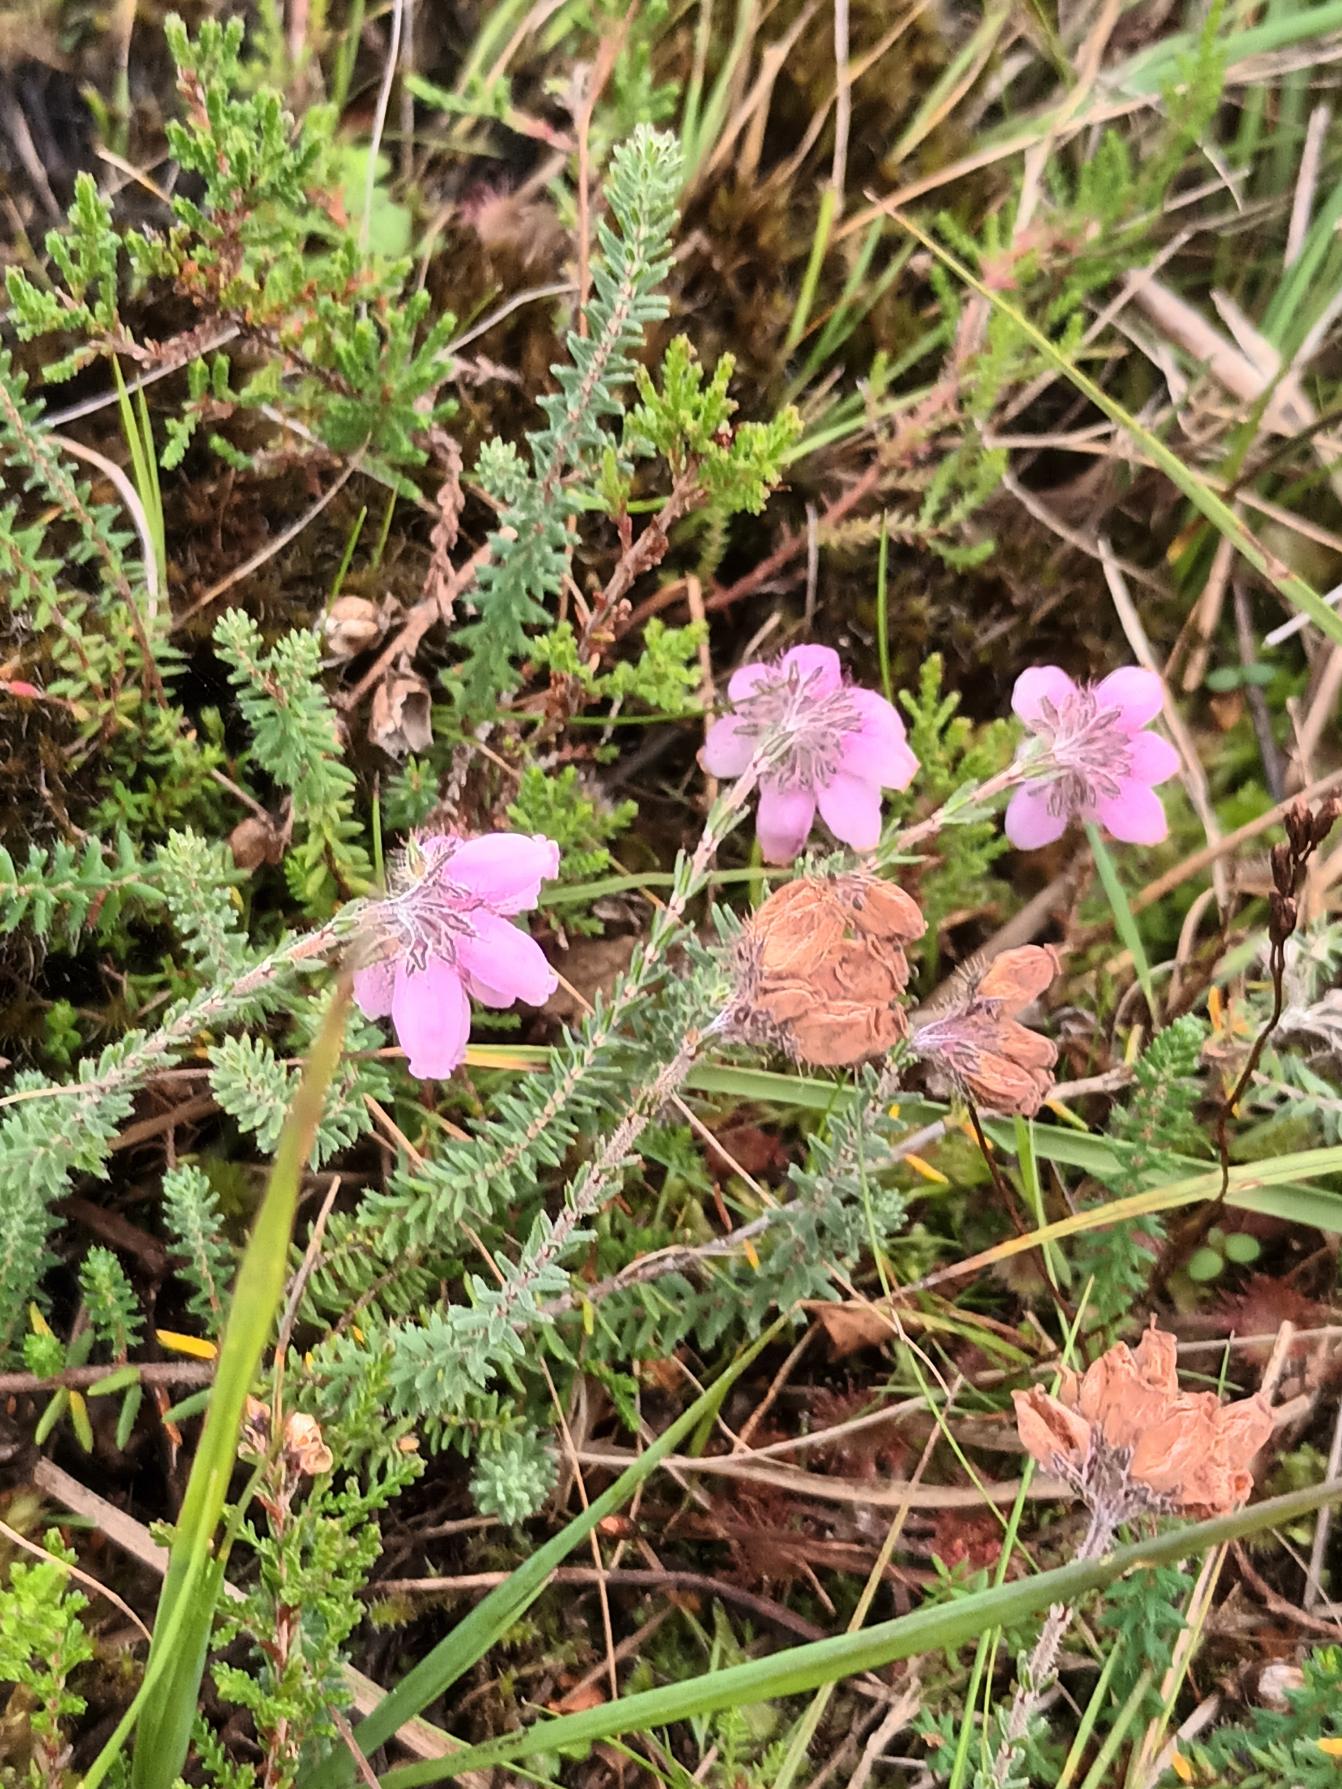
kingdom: Plantae
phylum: Tracheophyta
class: Magnoliopsida
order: Ericales
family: Ericaceae
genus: Erica
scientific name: Erica tetralix
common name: Klokkelyng
